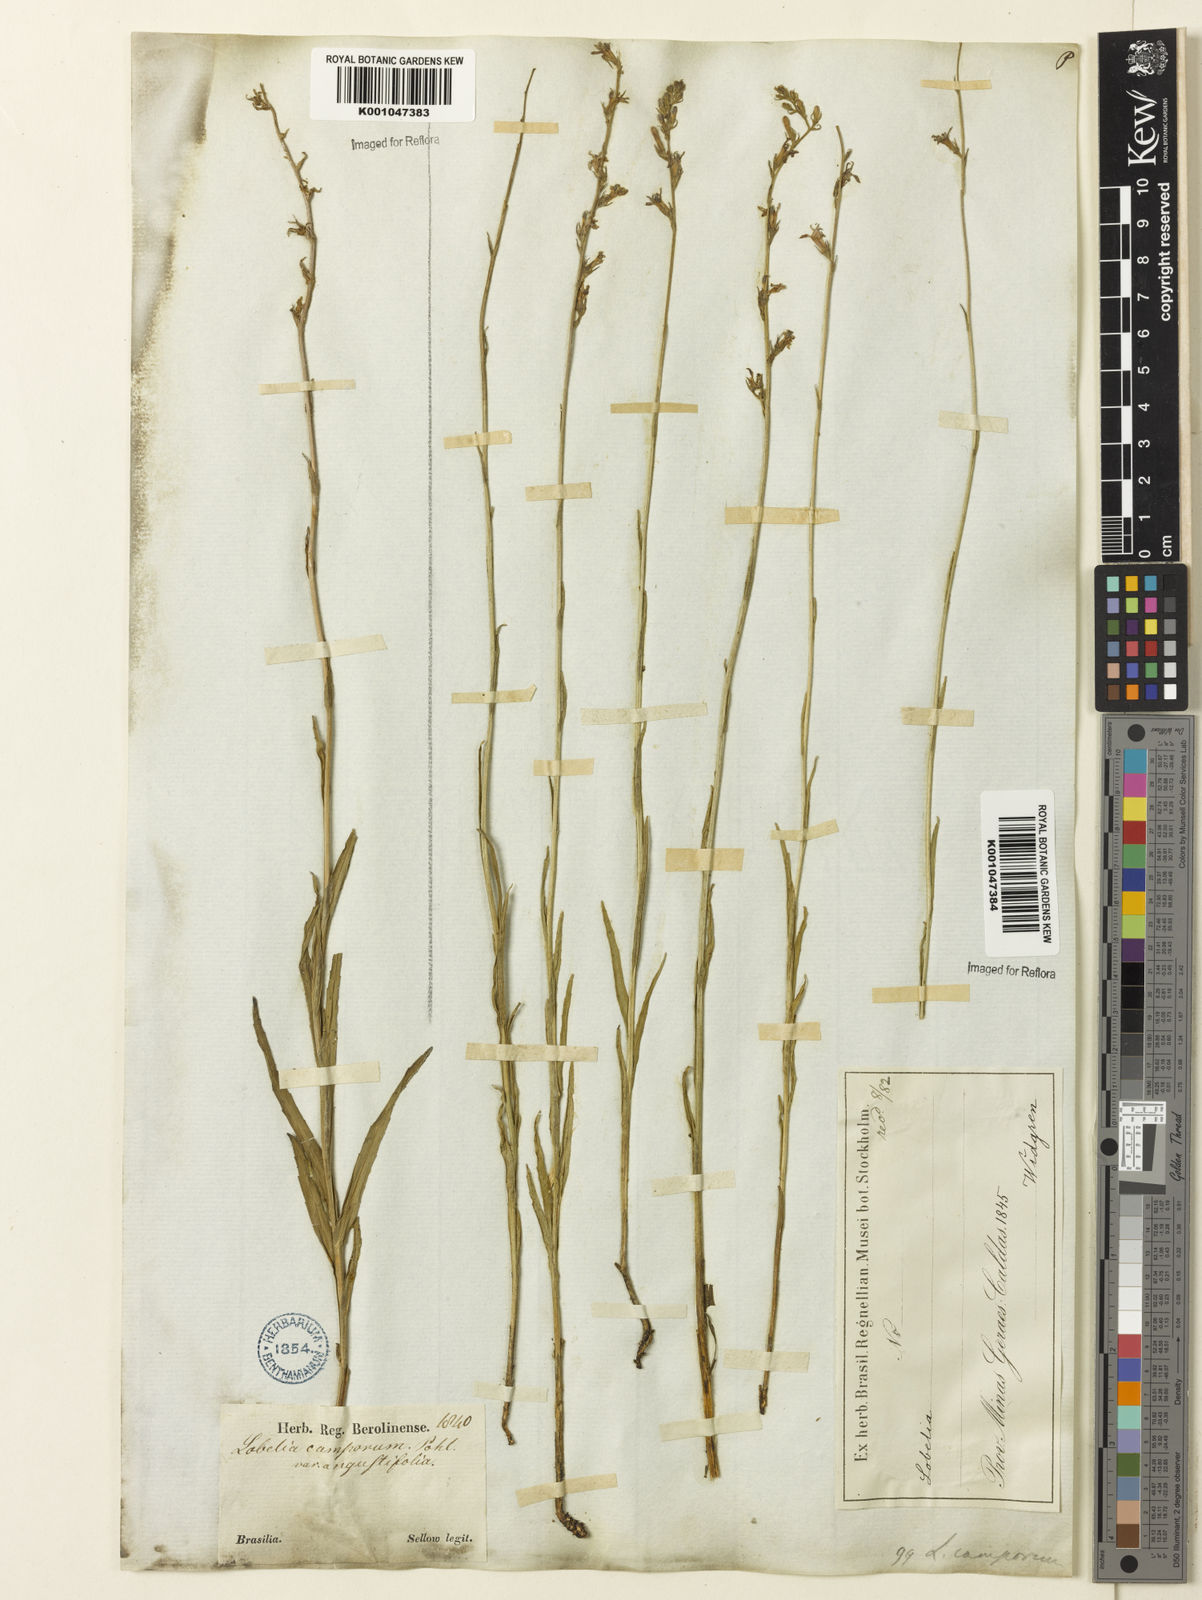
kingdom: Plantae
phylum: Tracheophyta
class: Magnoliopsida
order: Asterales
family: Campanulaceae
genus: Lobelia
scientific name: Lobelia camporum
